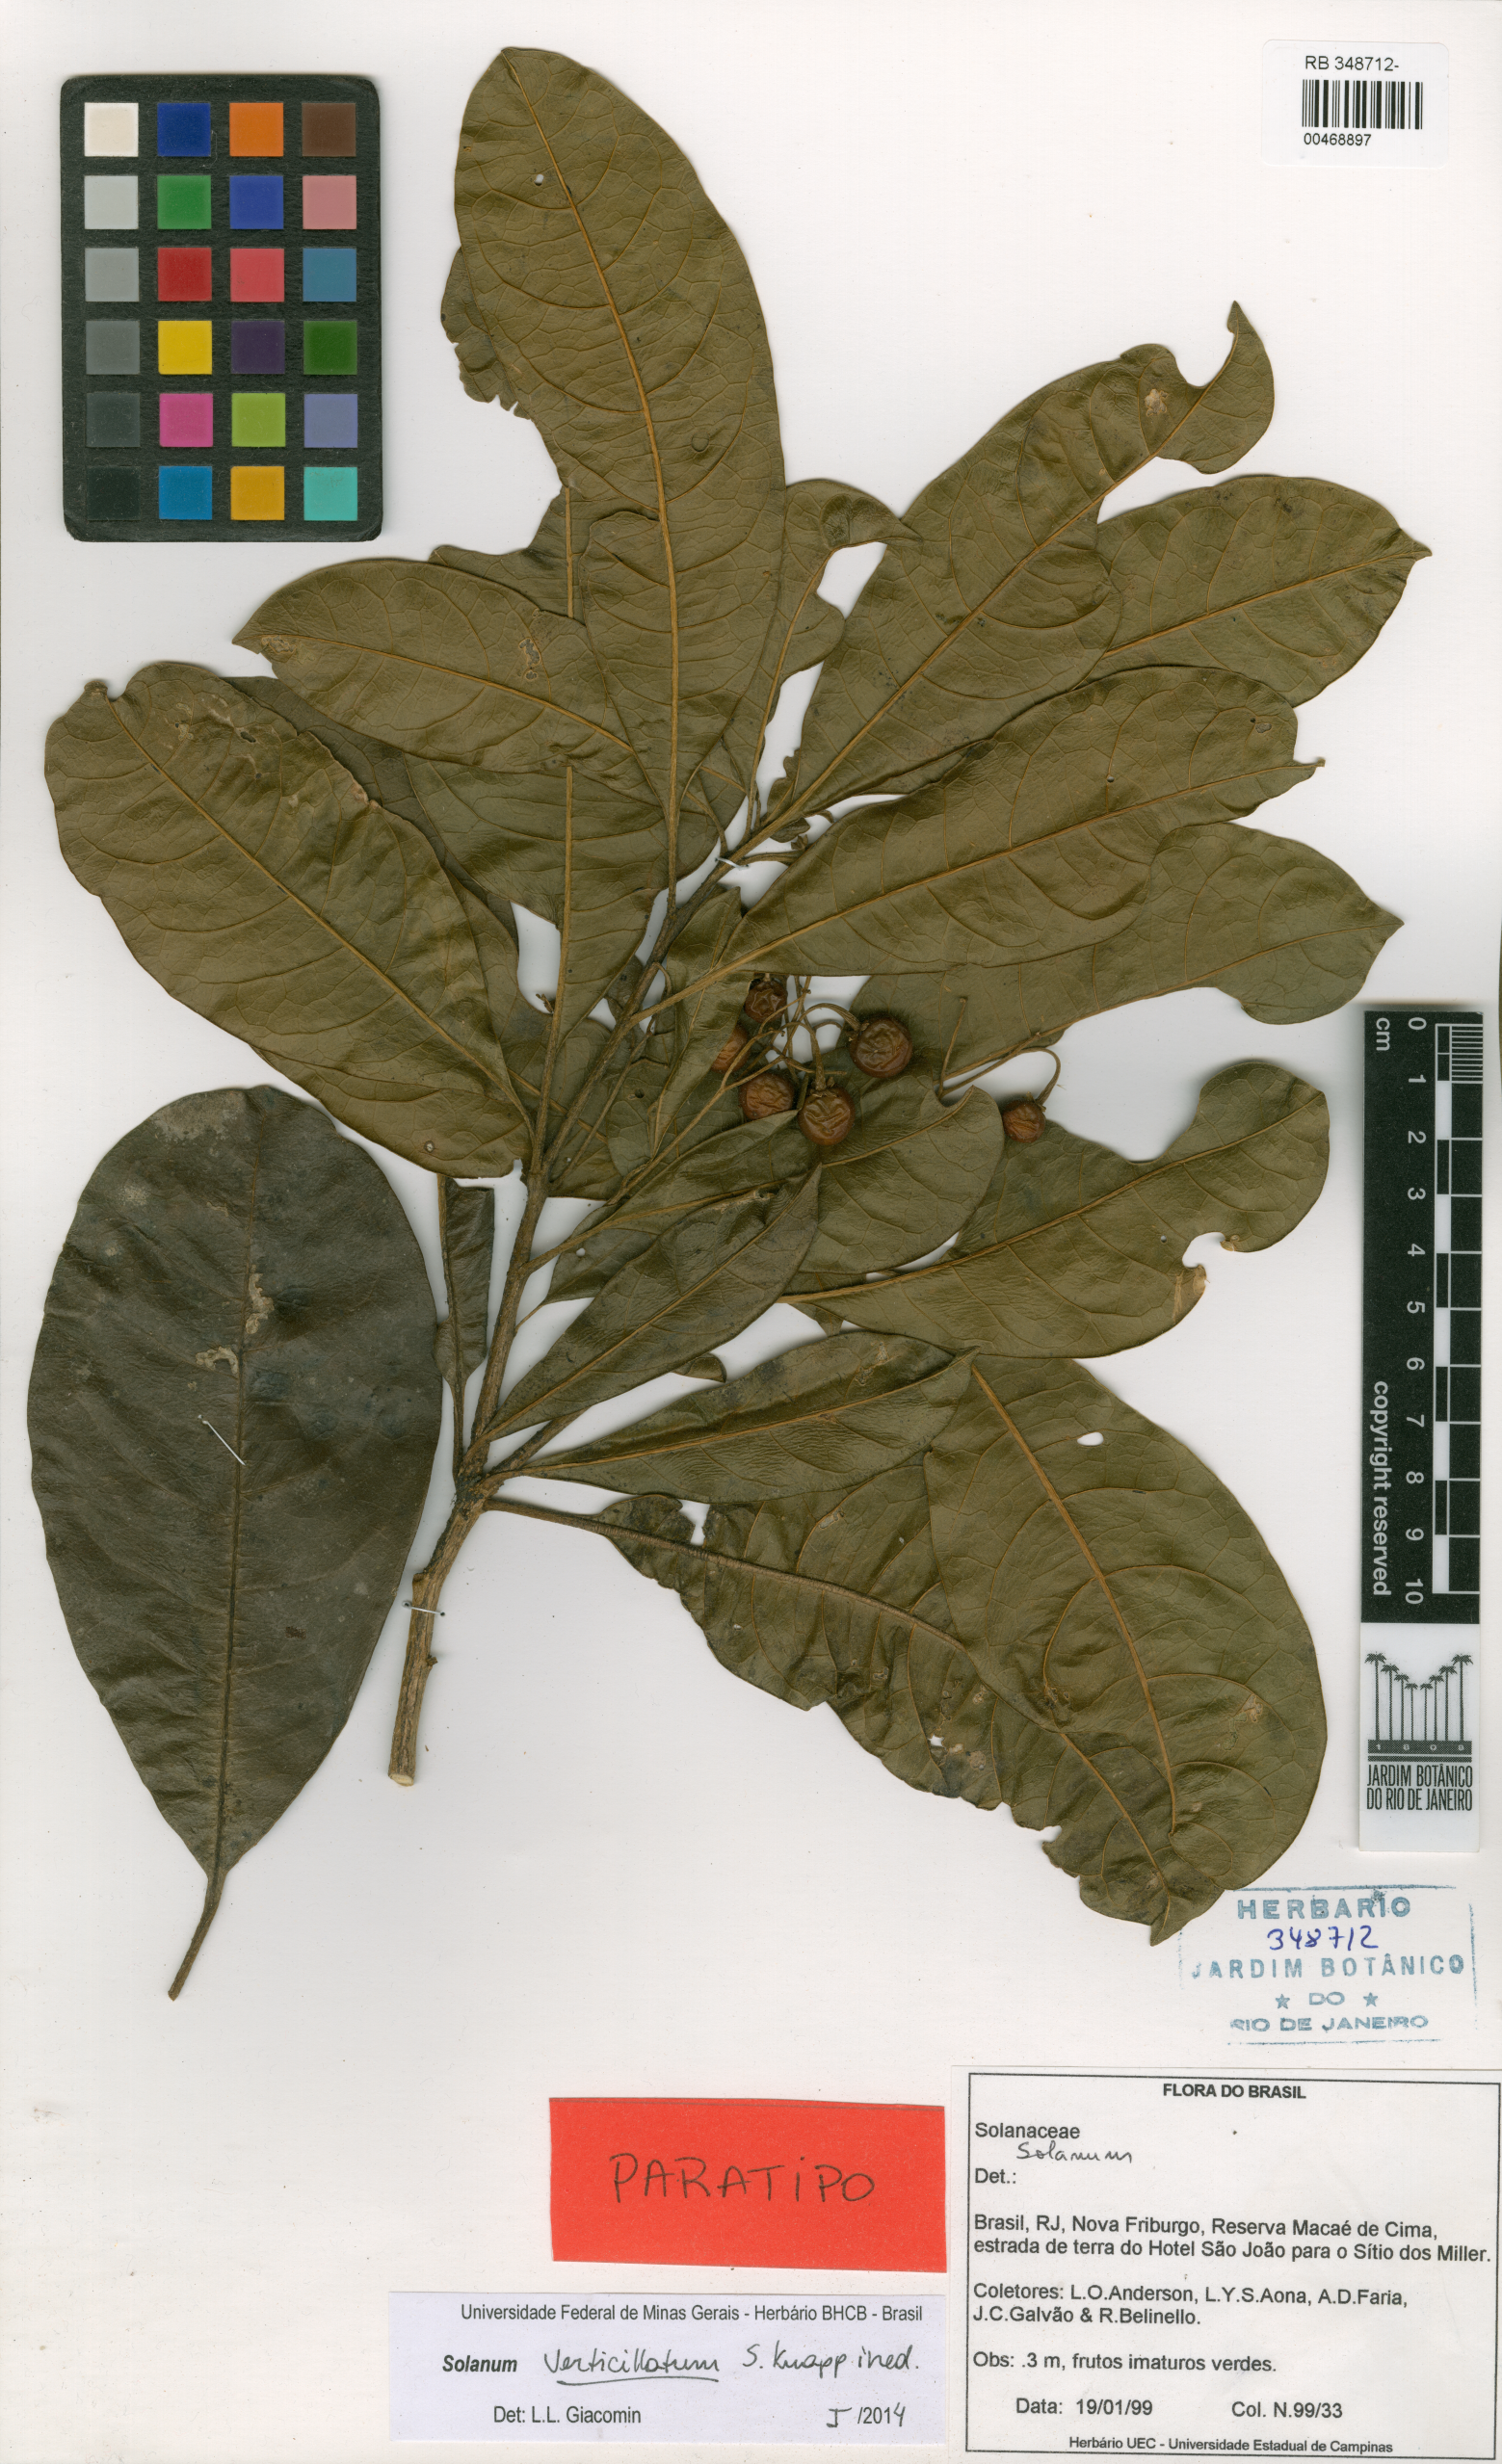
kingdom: Plantae
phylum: Tracheophyta
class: Magnoliopsida
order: Solanales
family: Solanaceae
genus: Solanum
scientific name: Solanum verticillatum
